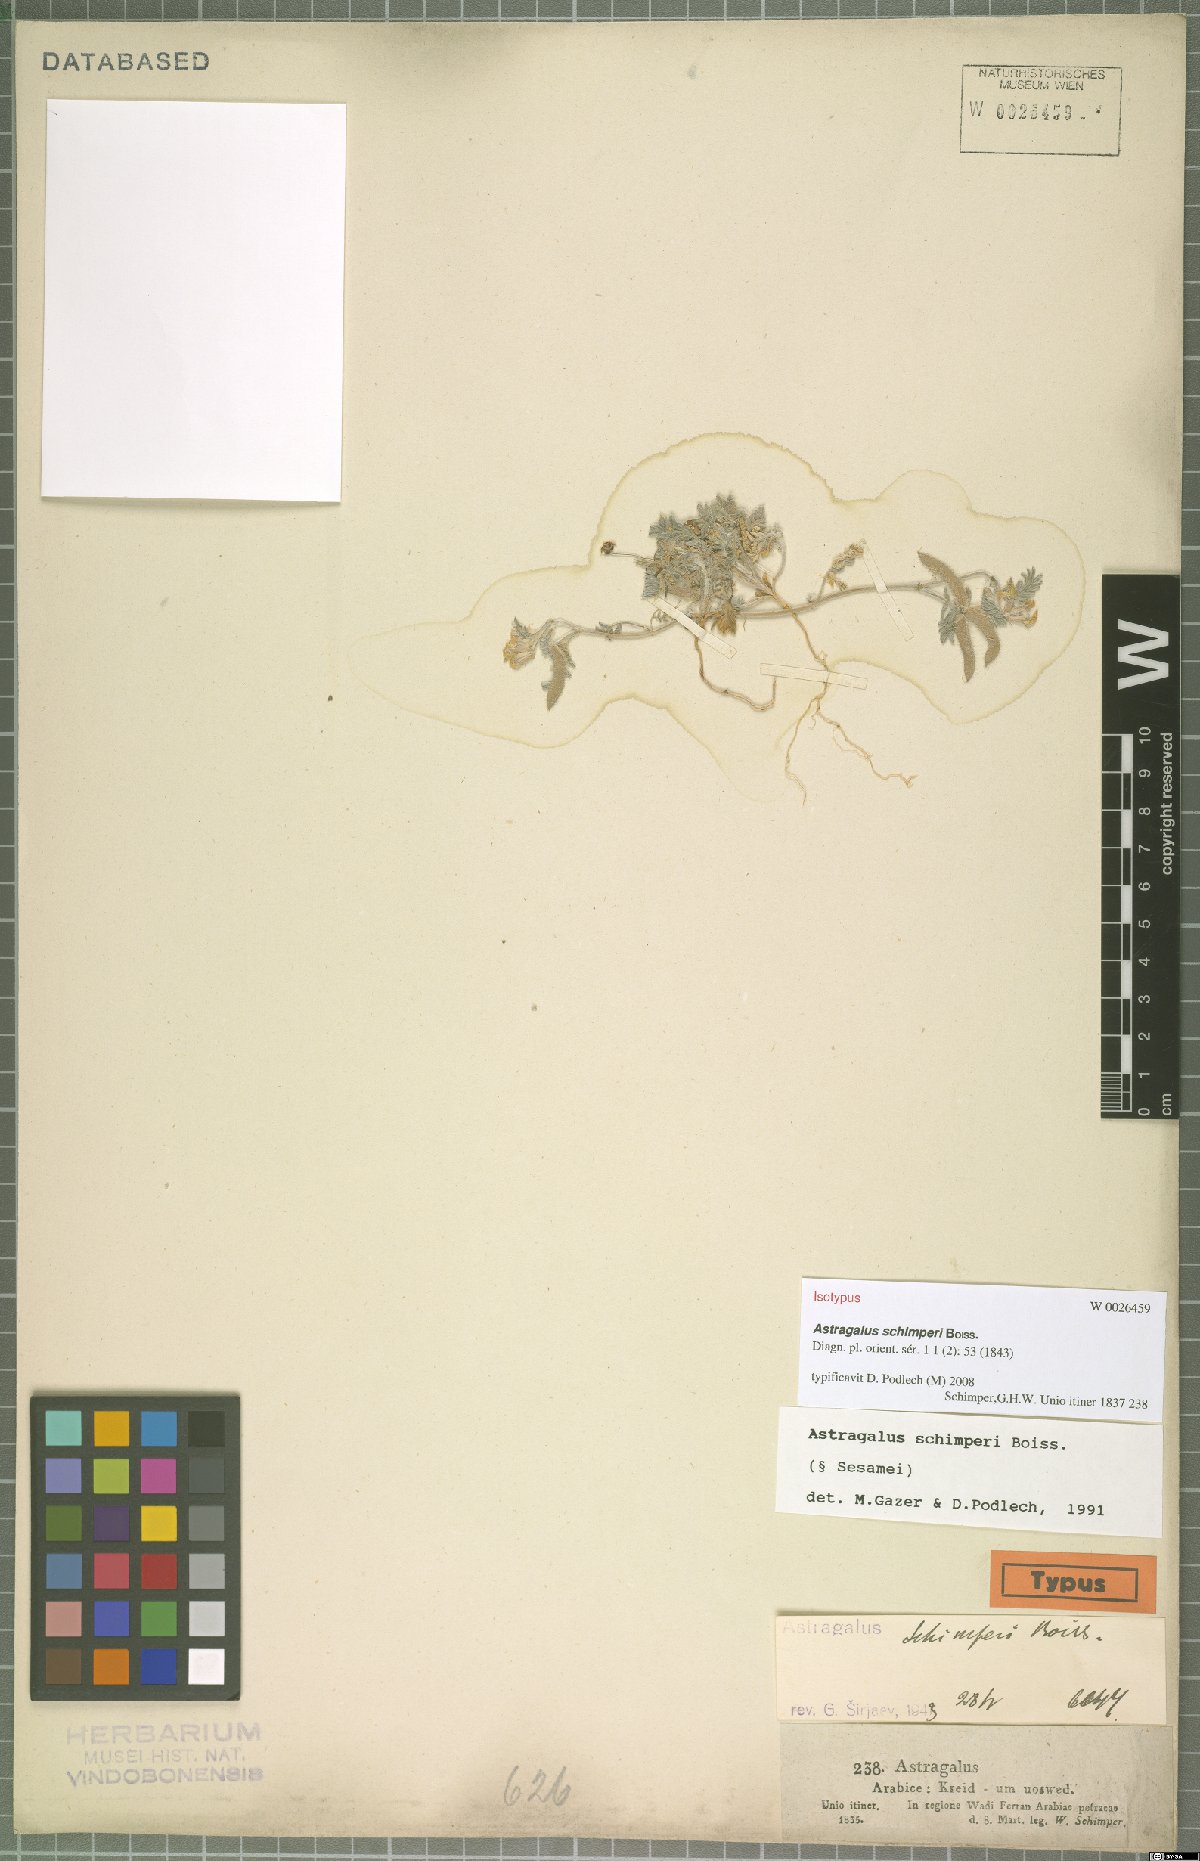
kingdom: Plantae
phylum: Tracheophyta
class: Magnoliopsida
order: Fabales
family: Fabaceae
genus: Astragalus
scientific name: Astragalus schimperi
